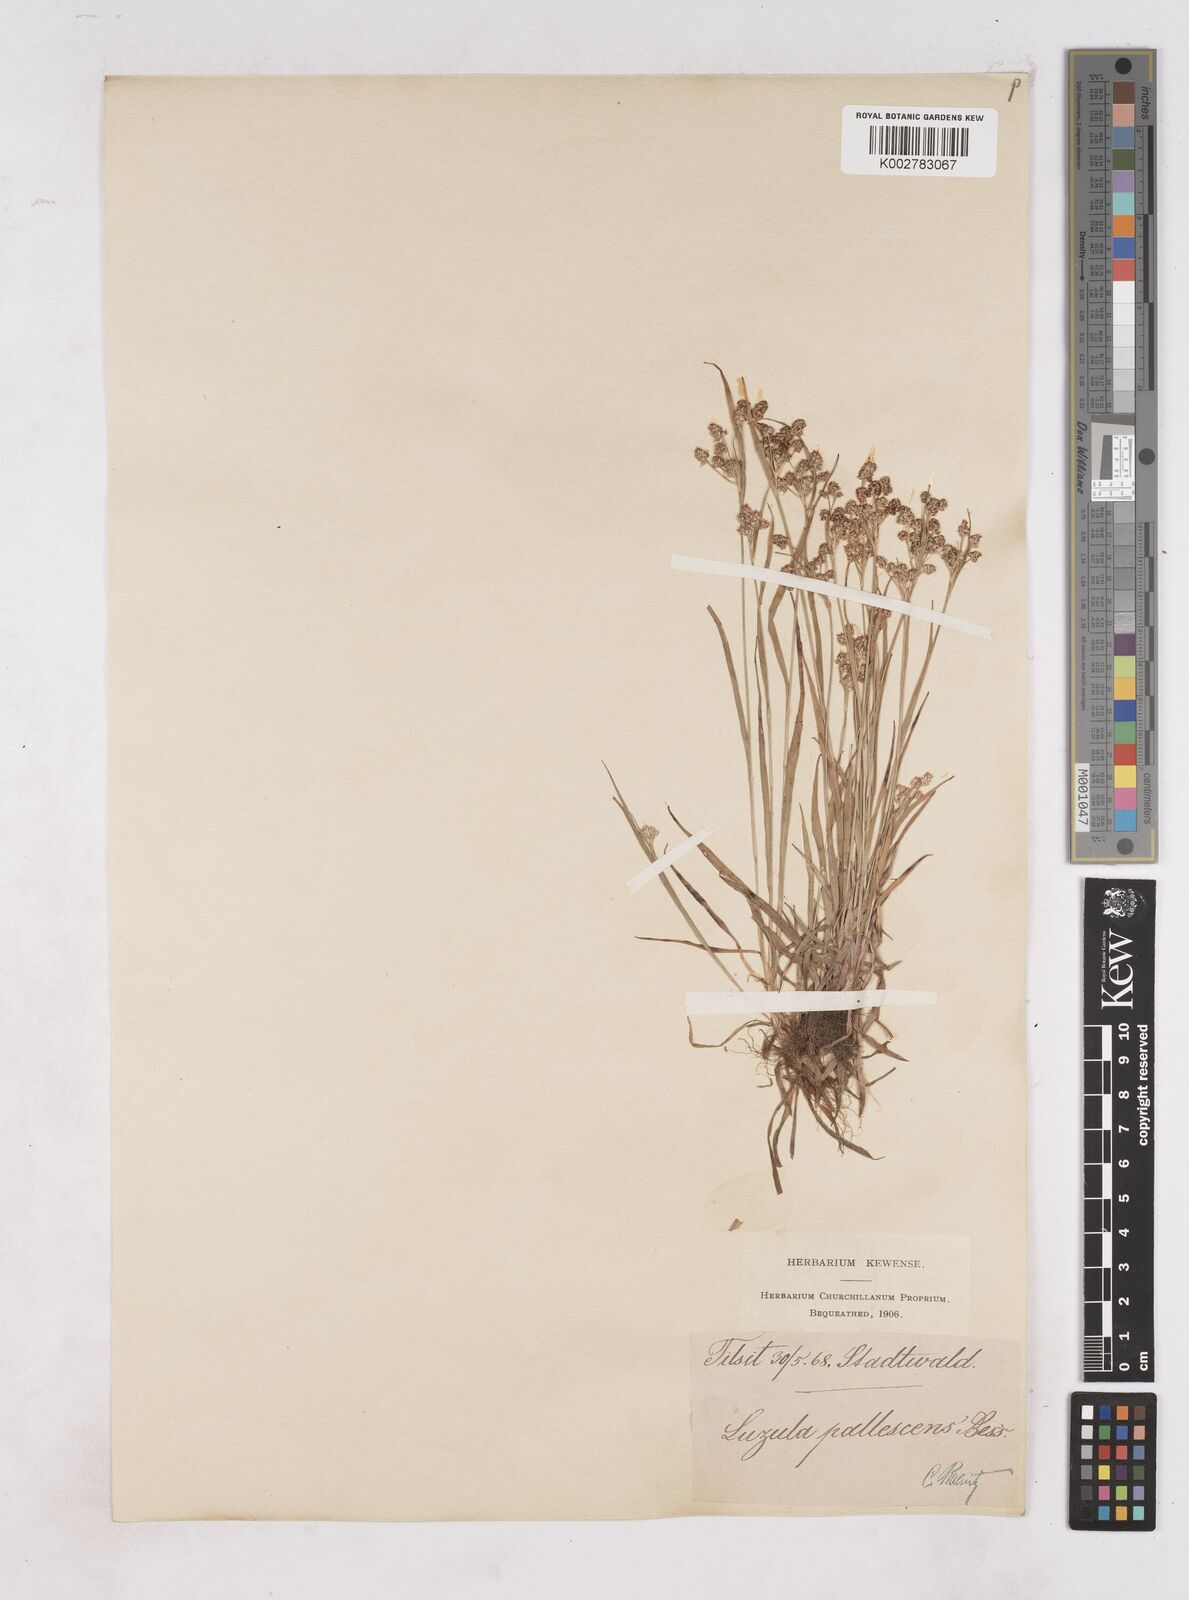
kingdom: Plantae
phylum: Tracheophyta
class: Liliopsida
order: Poales
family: Juncaceae
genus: Luzula
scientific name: Luzula pallescens
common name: Fen wood-rush
